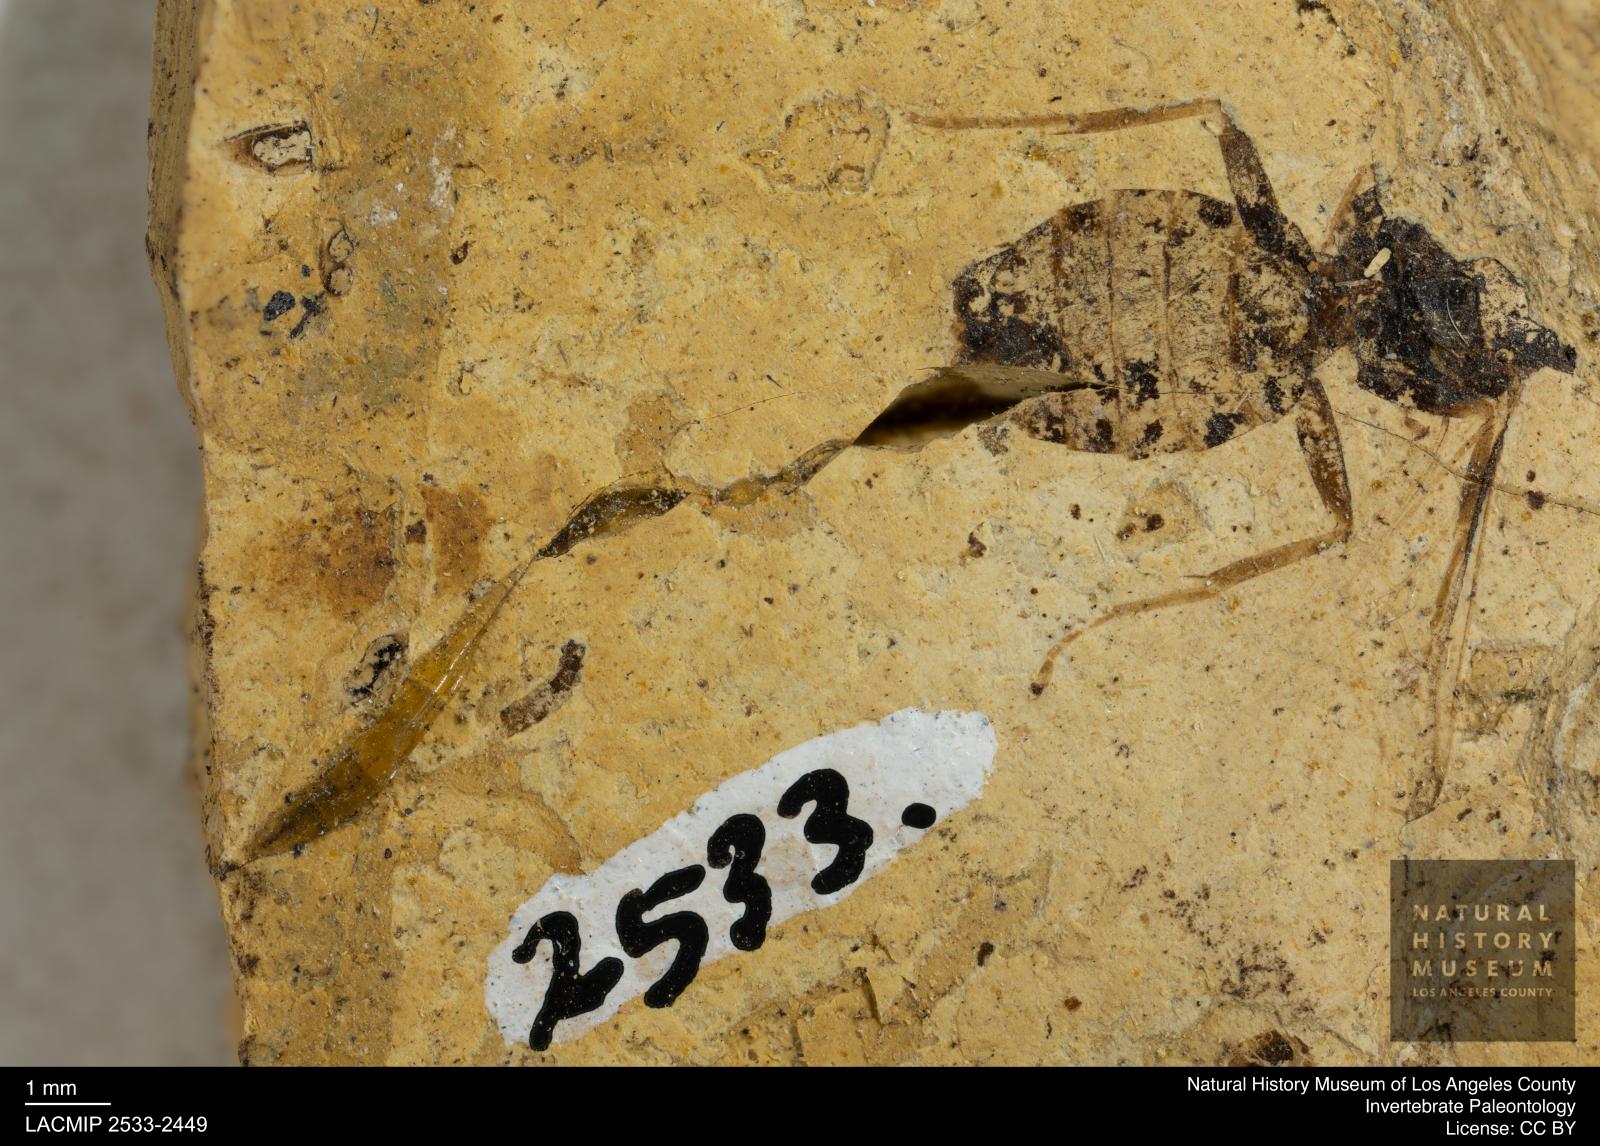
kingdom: Animalia
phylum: Arthropoda
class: Insecta
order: Hymenoptera
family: Formicidae
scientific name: Formicidae
